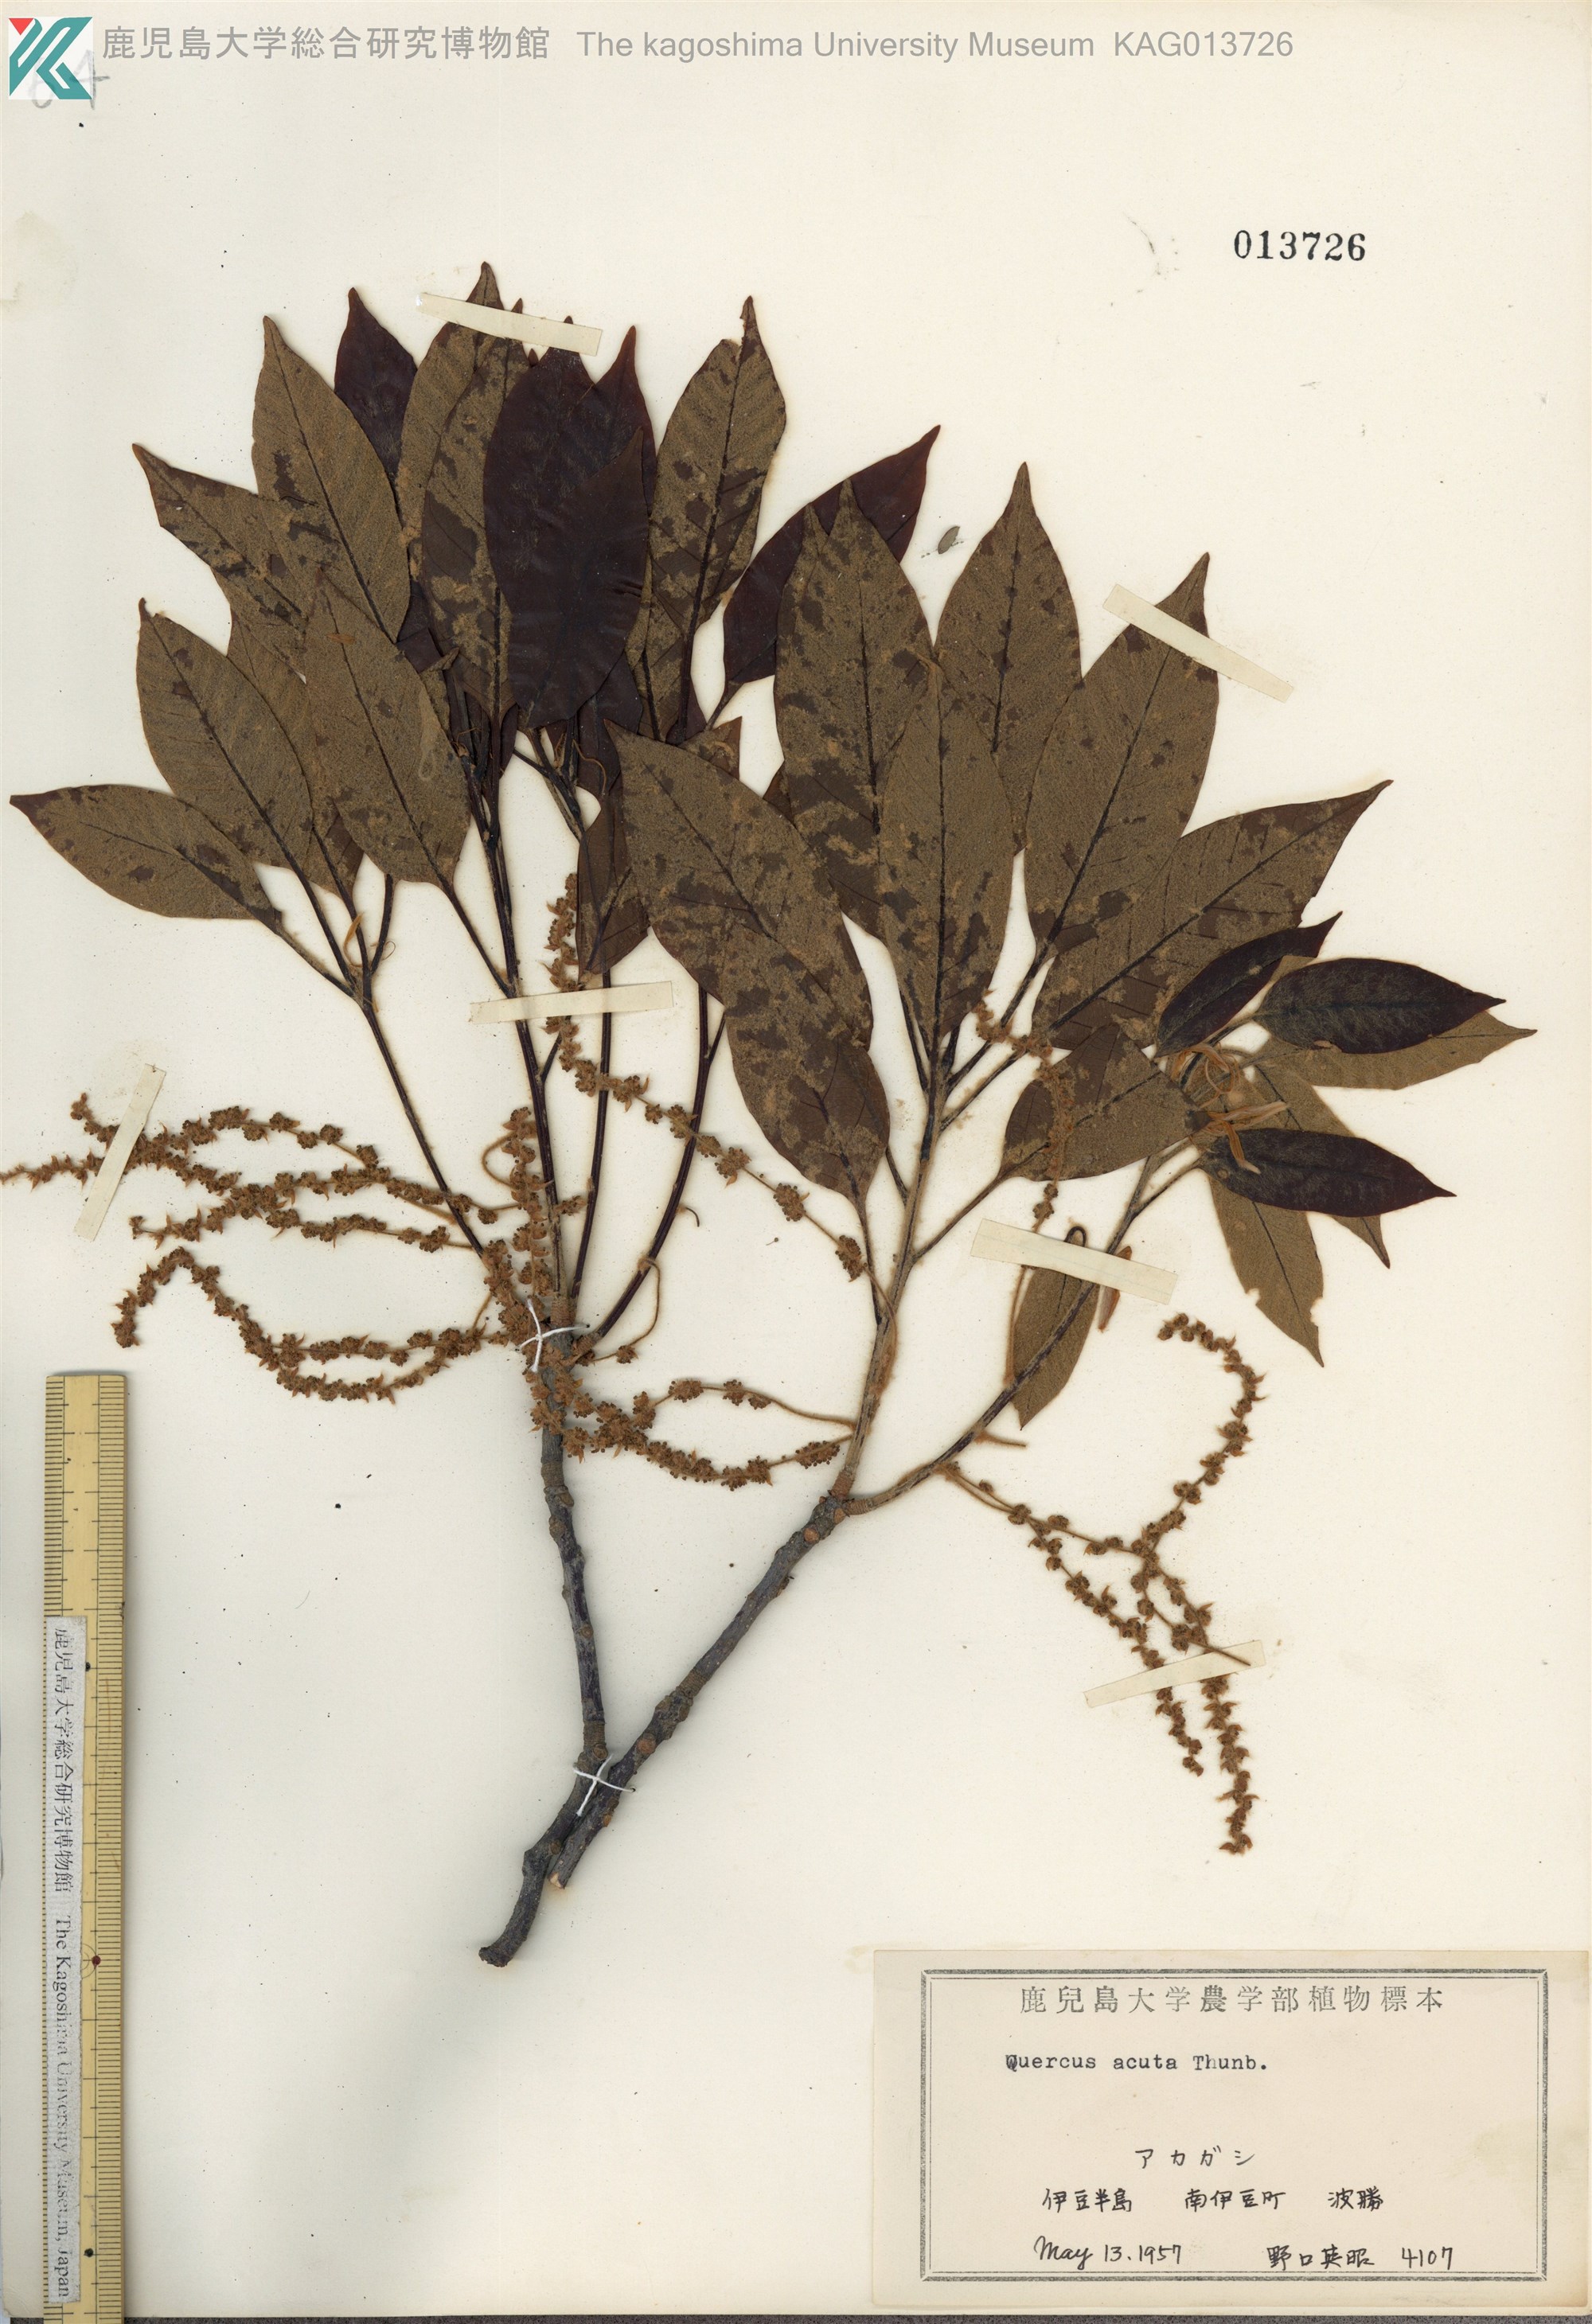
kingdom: Plantae
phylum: Tracheophyta
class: Magnoliopsida
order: Fagales
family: Fagaceae
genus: Quercus
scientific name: Quercus acuta
